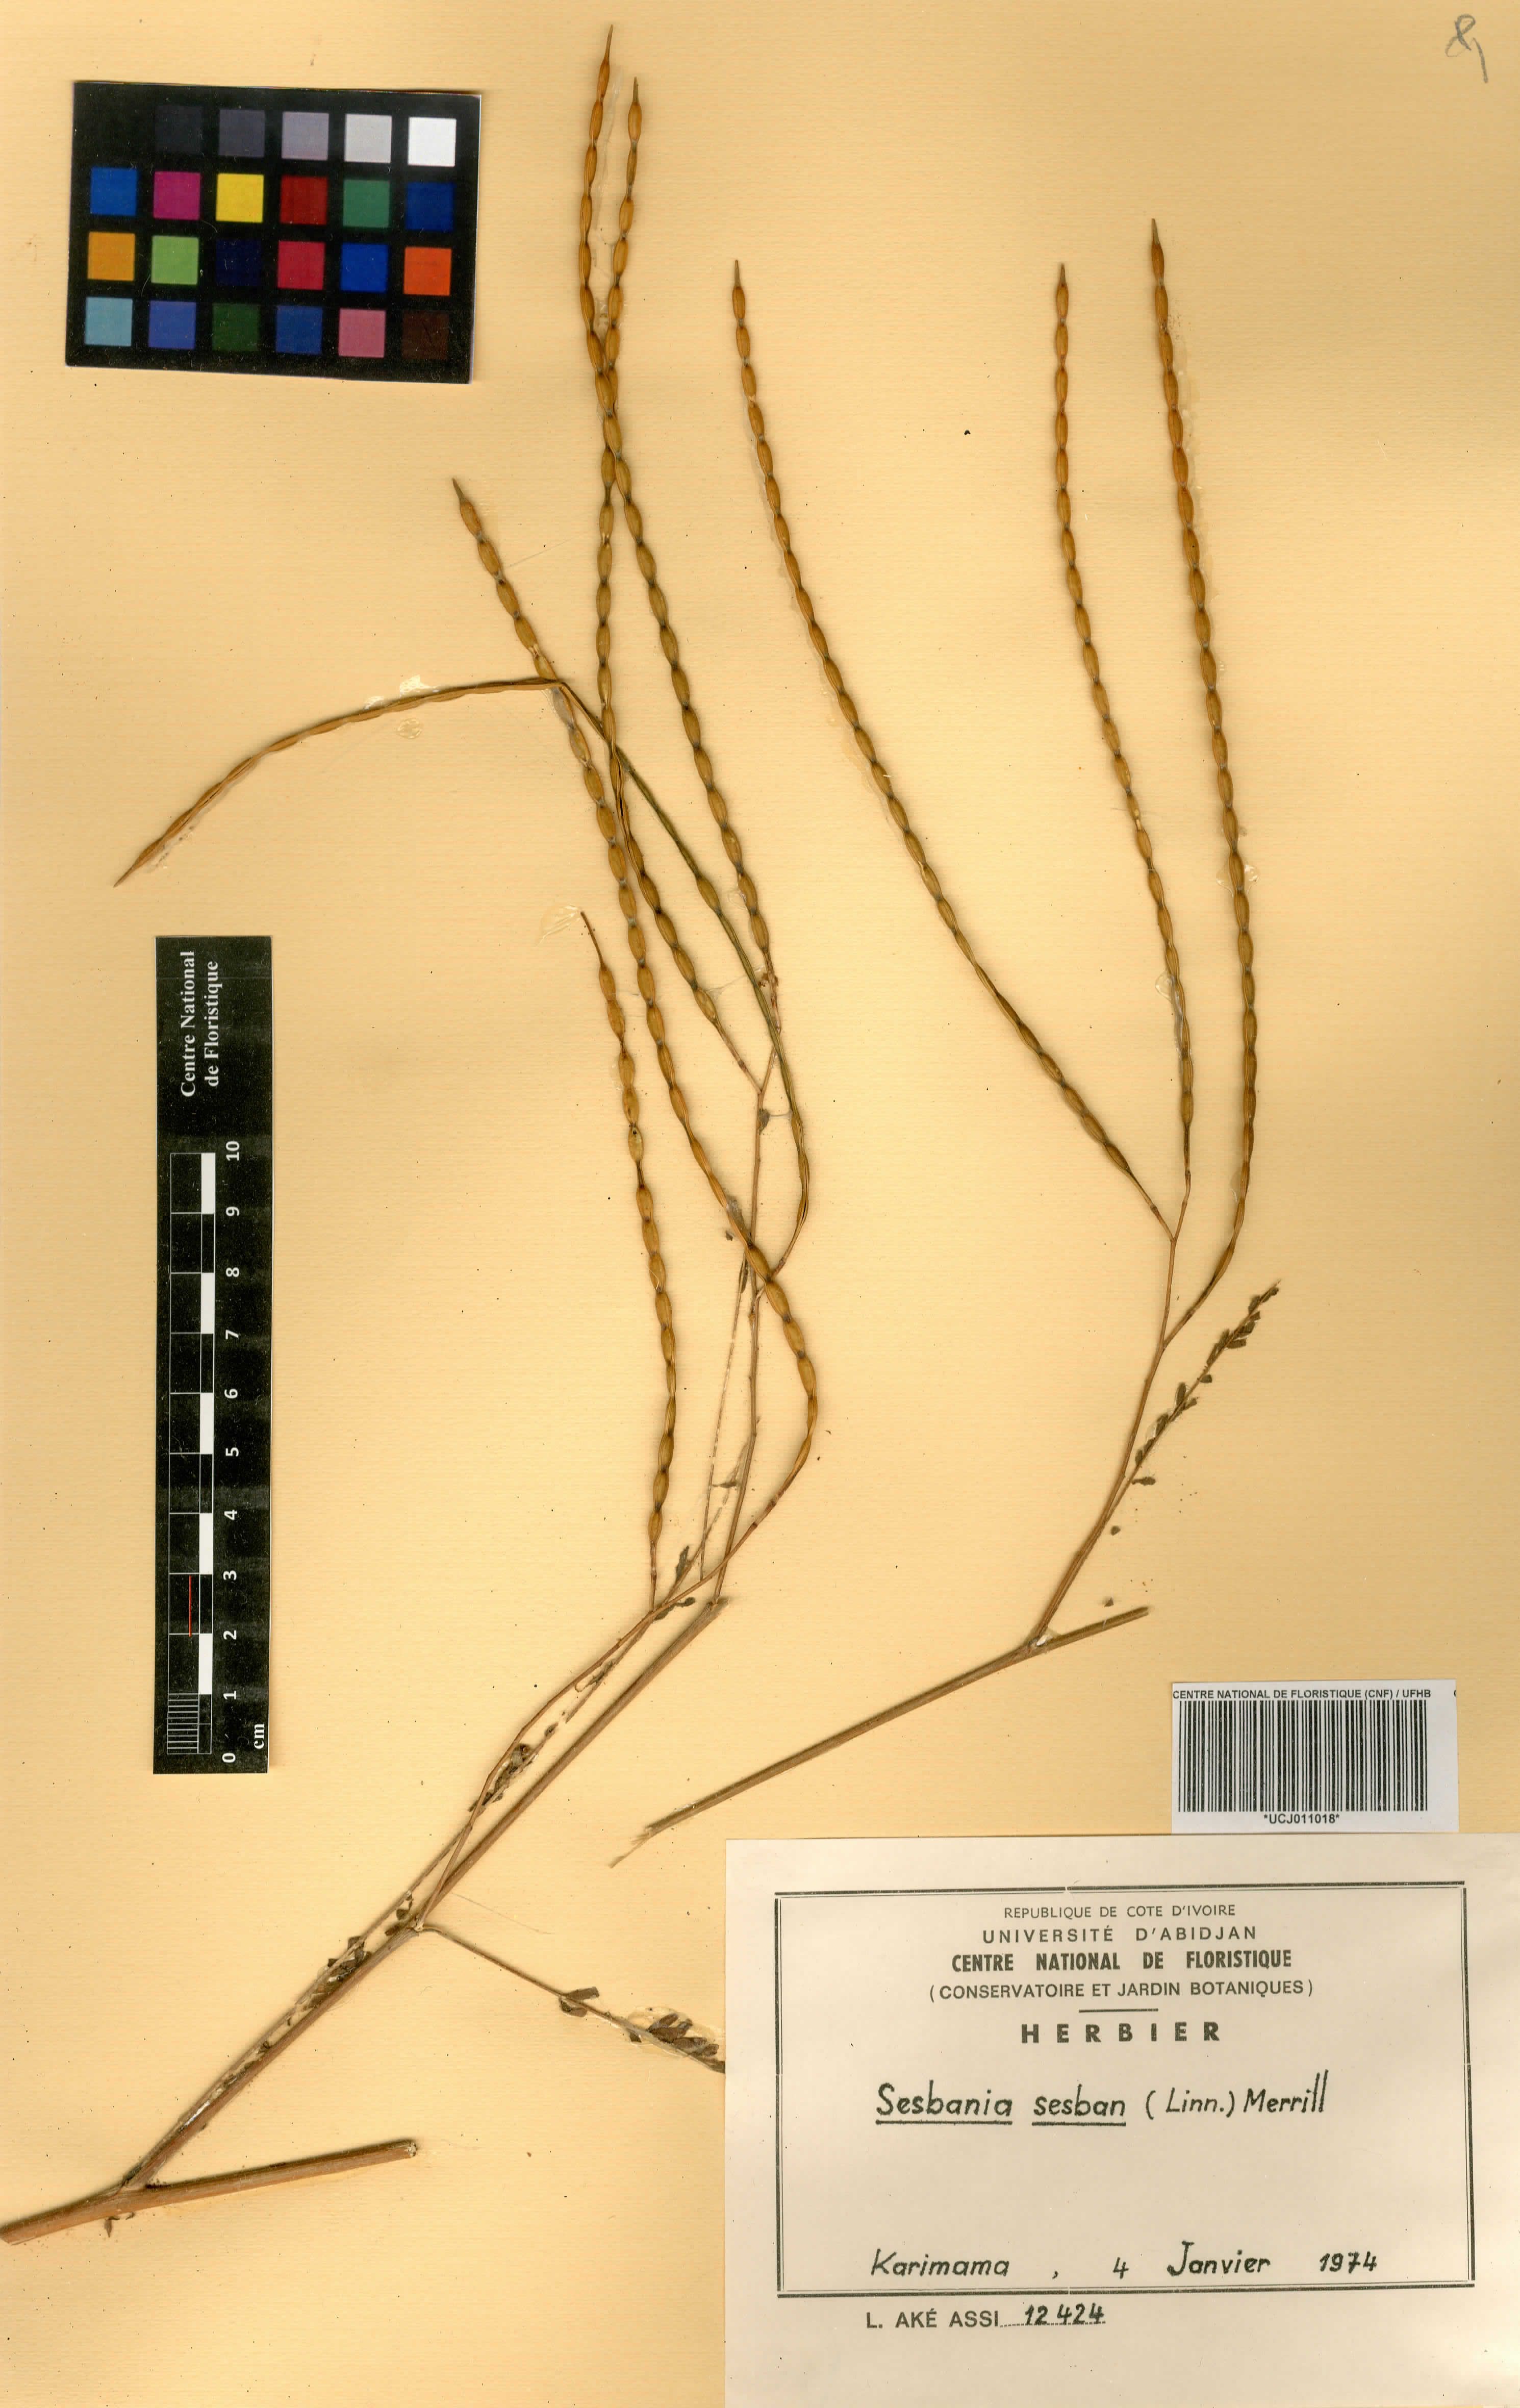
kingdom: Plantae
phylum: Tracheophyta
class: Magnoliopsida
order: Fabales
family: Fabaceae
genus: Sesbania
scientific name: Sesbania sesban
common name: Egyptian sesban
